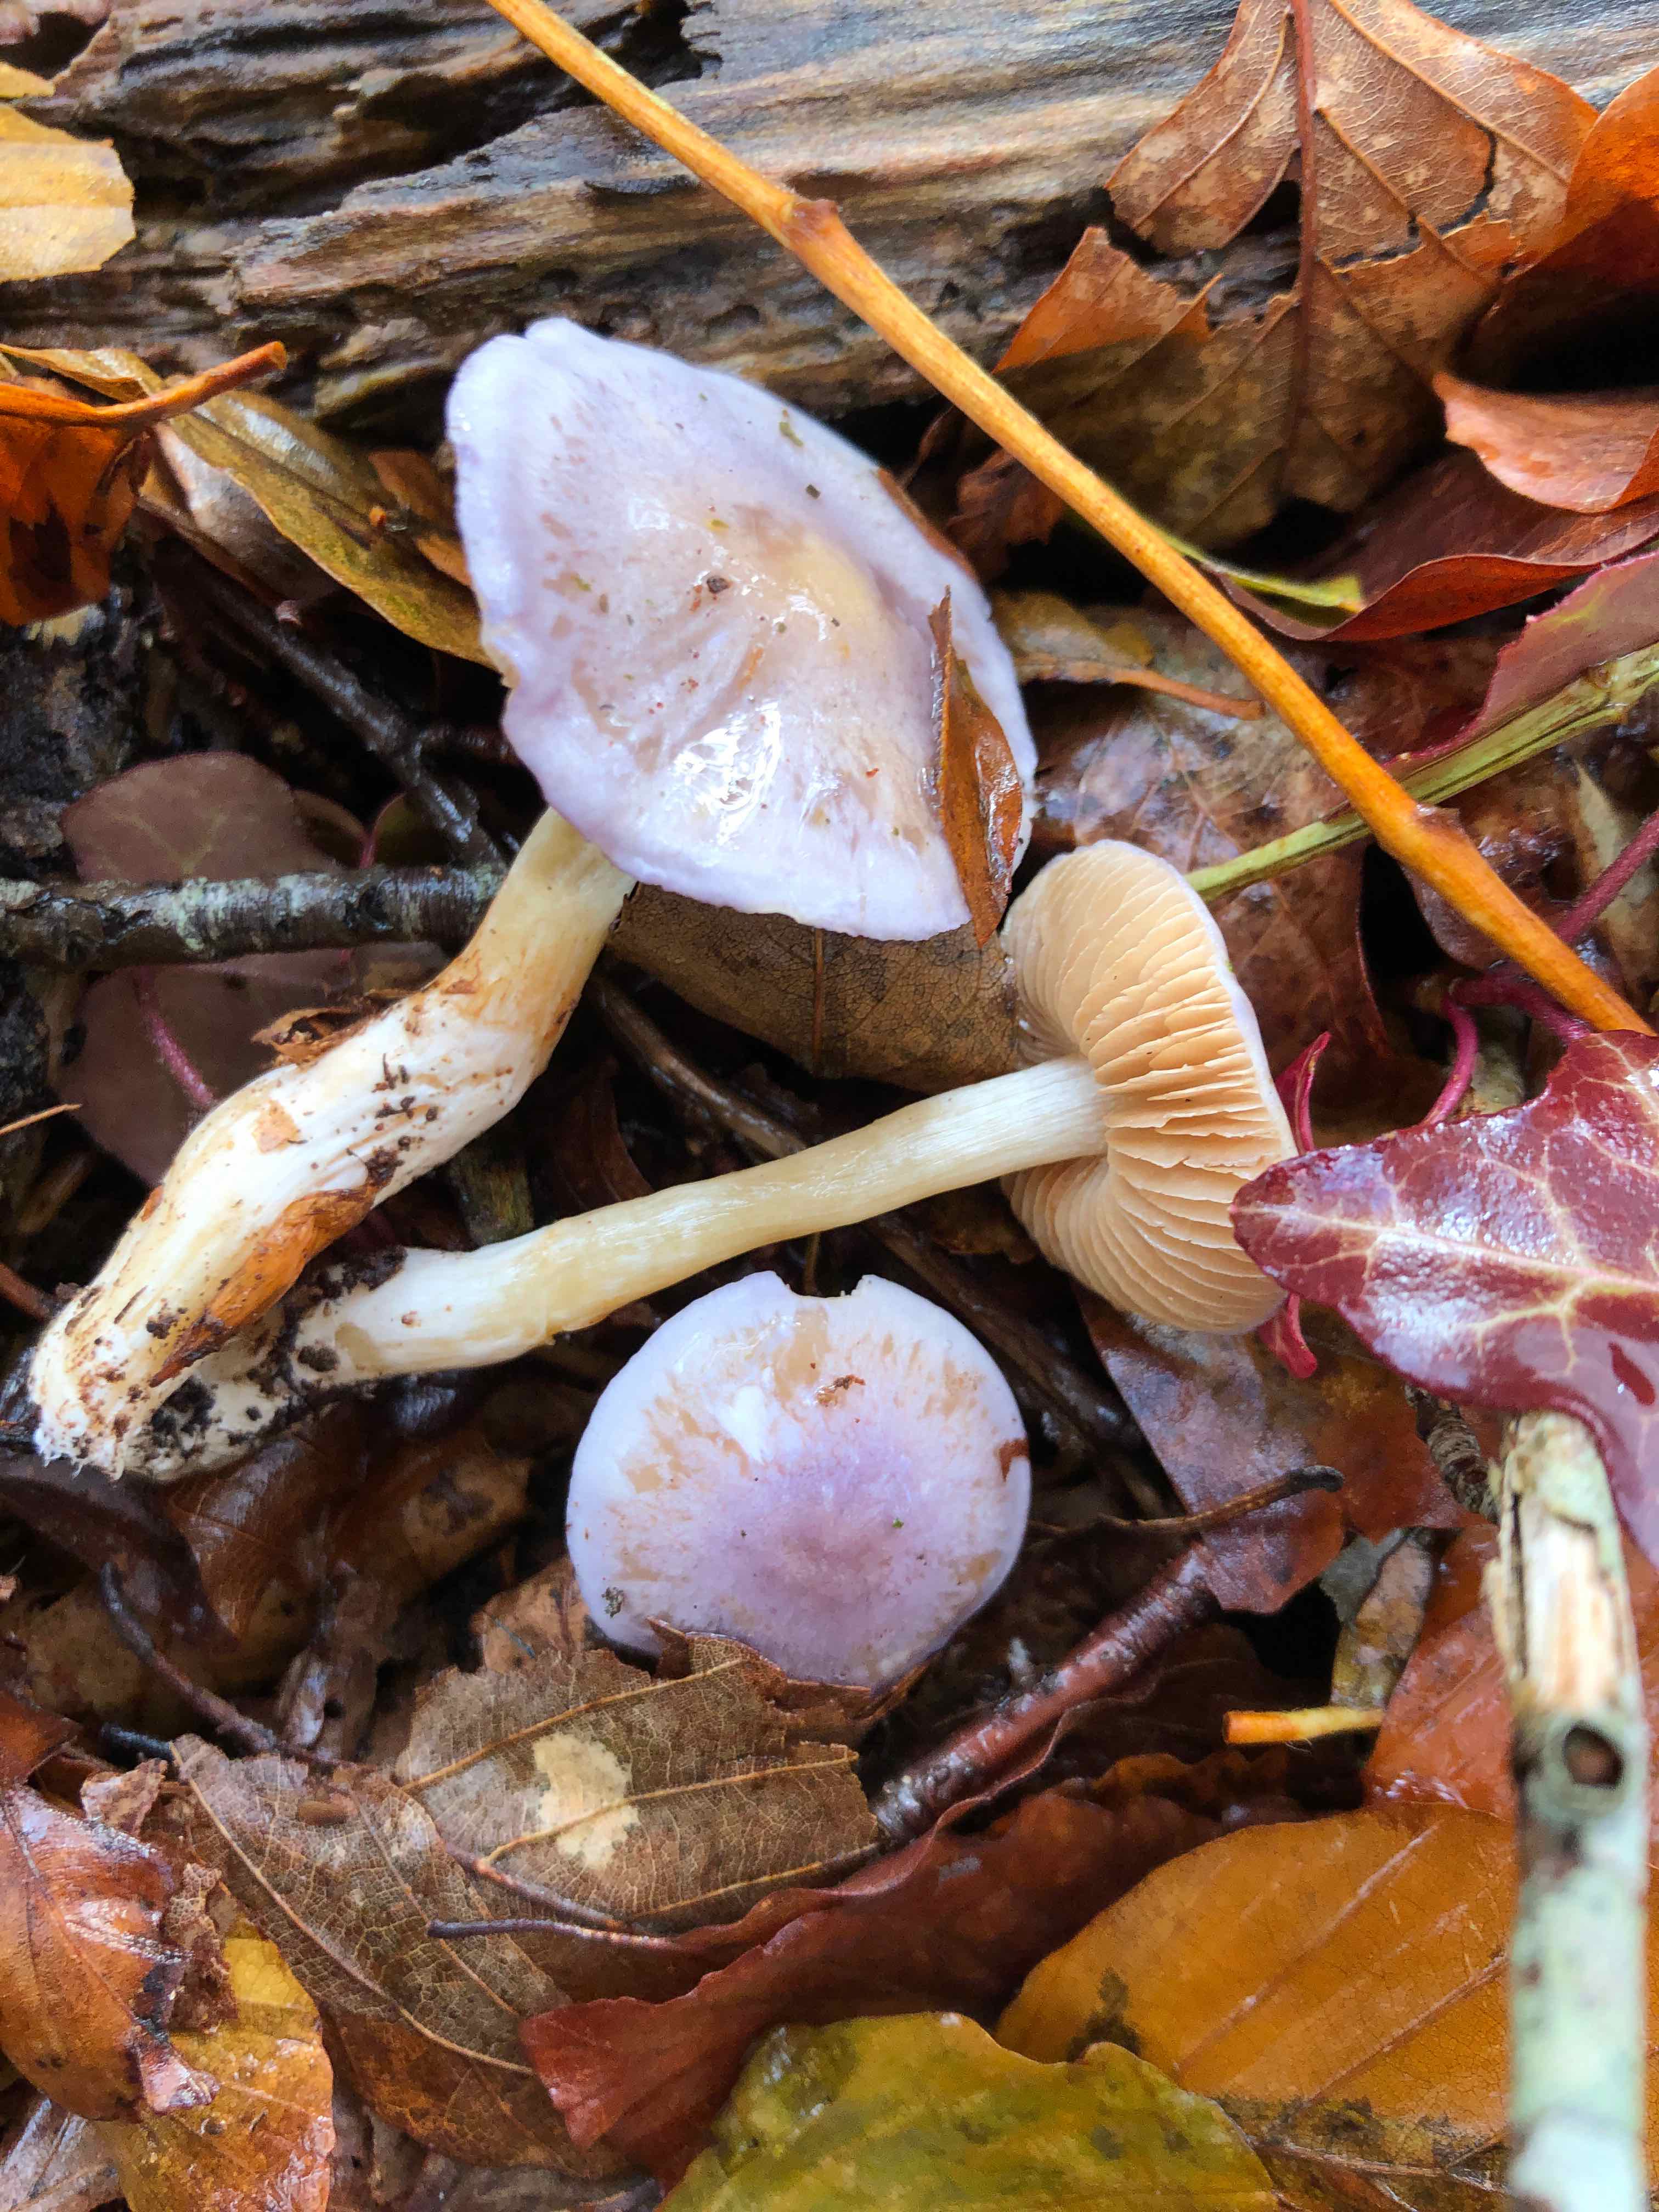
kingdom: Fungi
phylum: Basidiomycota
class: Agaricomycetes
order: Agaricales
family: Cortinariaceae
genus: Thaxterogaster
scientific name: Thaxterogaster croceocoeruleus
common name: blågullig slørhat
